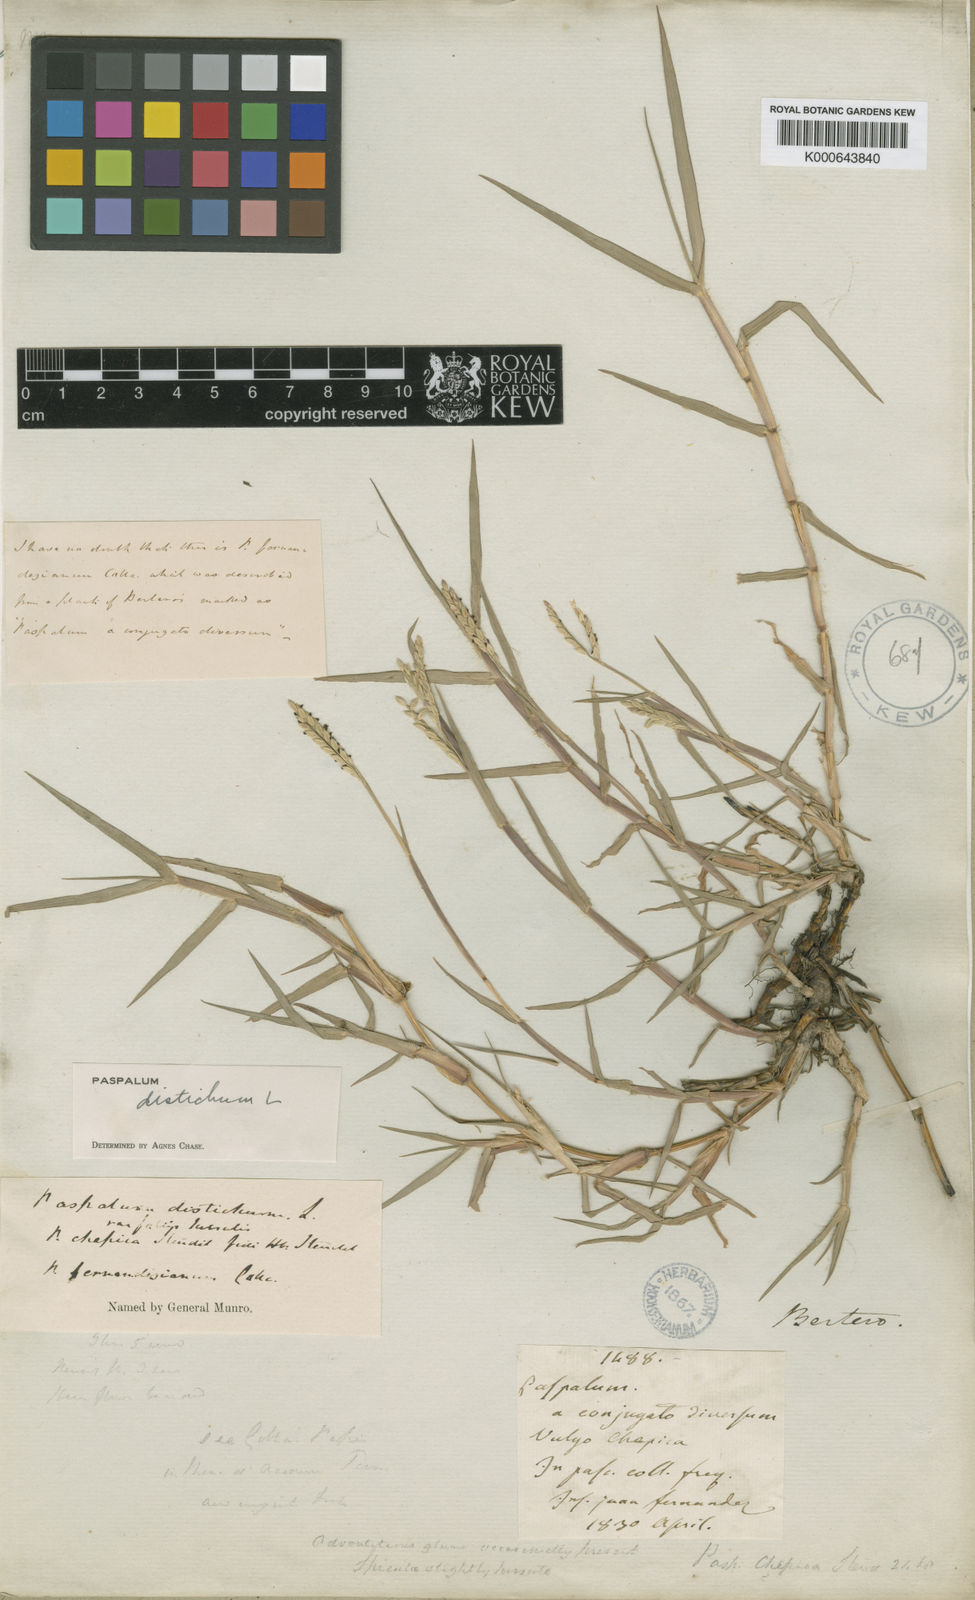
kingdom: Plantae
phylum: Tracheophyta
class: Liliopsida
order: Poales
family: Poaceae
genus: Paspalum
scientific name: Paspalum distichum
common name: Knotgrass
